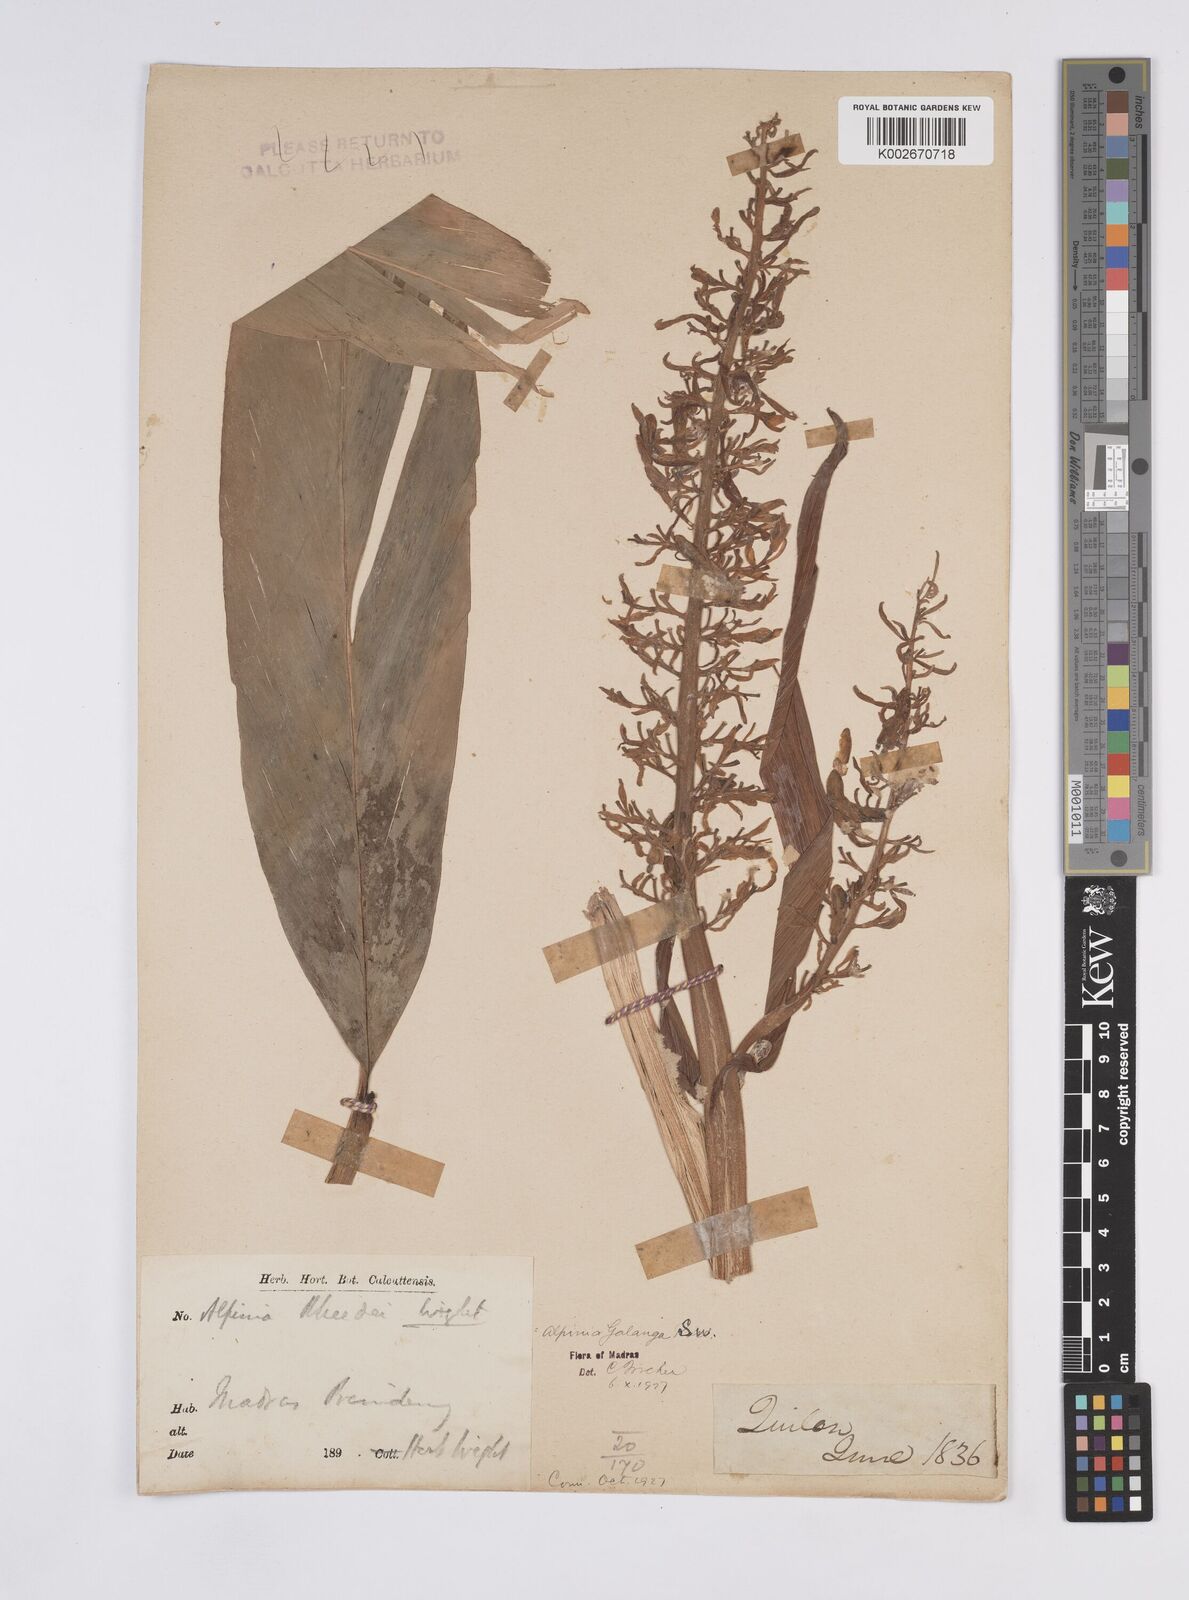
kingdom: Plantae
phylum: Tracheophyta
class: Liliopsida
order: Zingiberales
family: Zingiberaceae
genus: Alpinia
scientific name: Alpinia galanga
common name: Siamese-ginger
